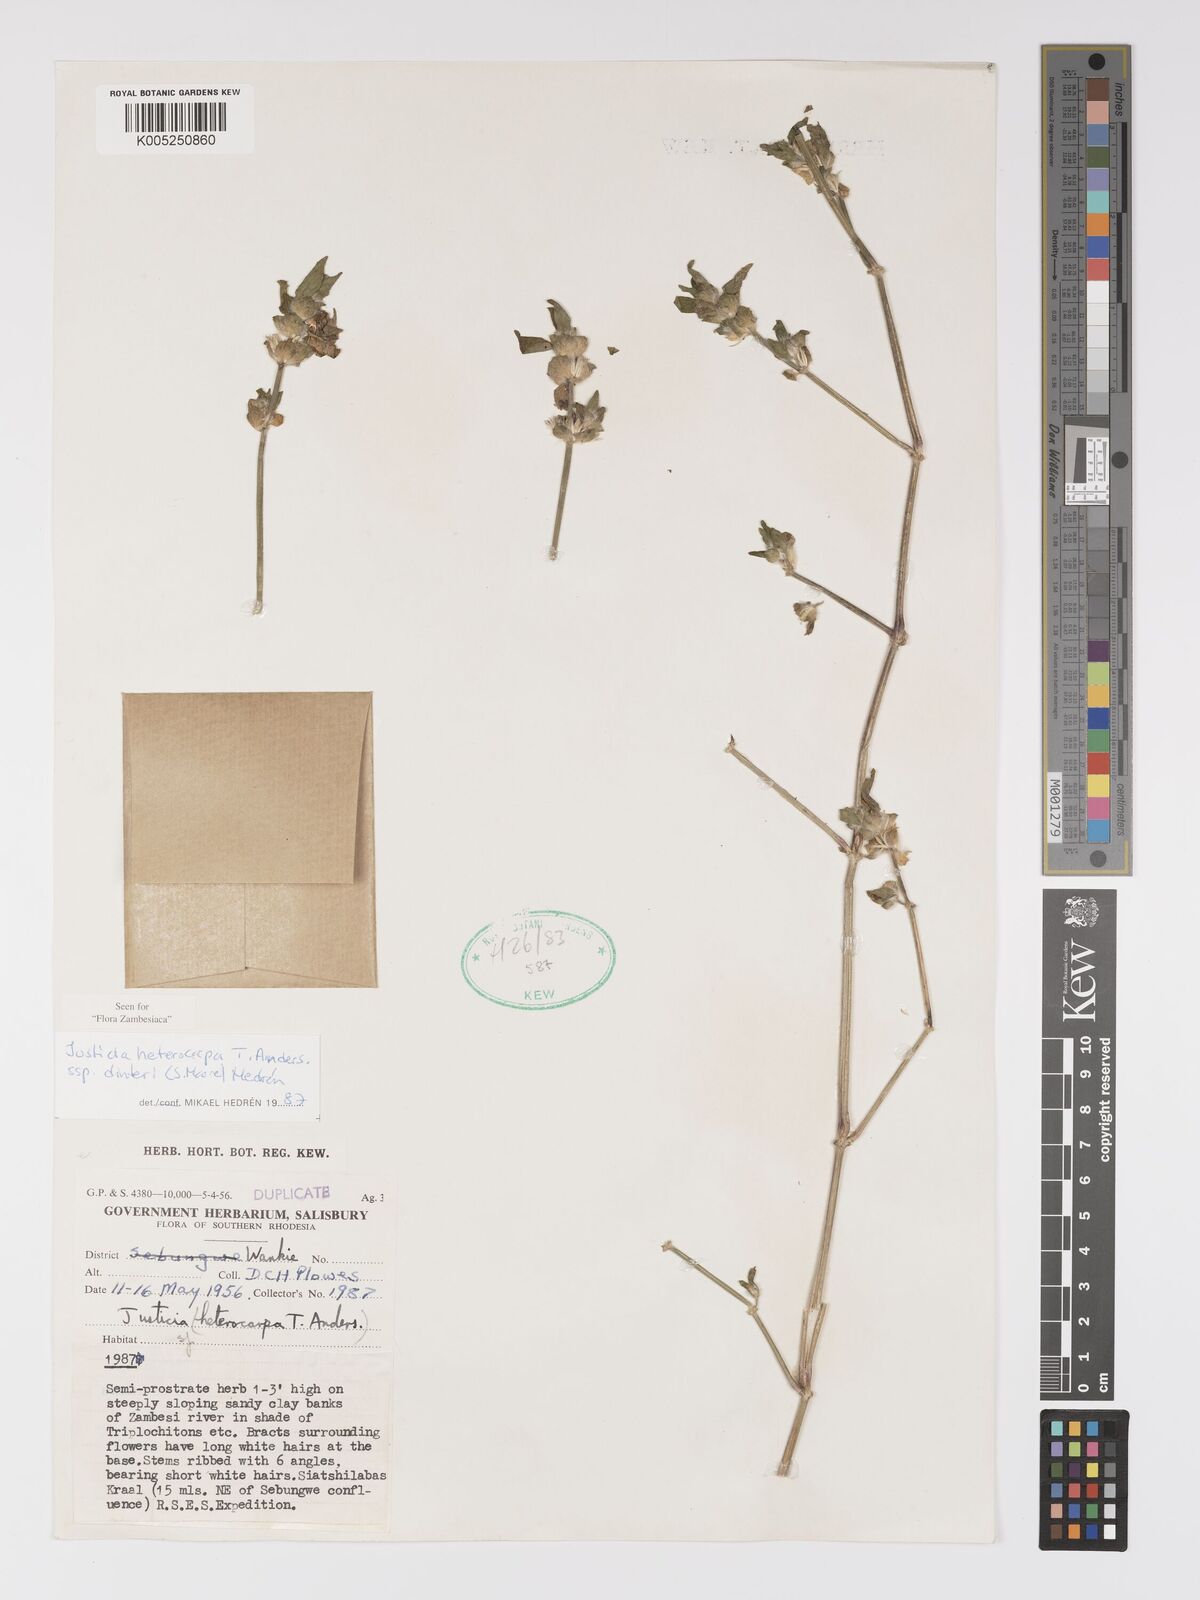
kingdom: Plantae
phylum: Tracheophyta
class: Magnoliopsida
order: Lamiales
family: Acanthaceae
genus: Justicia
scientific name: Justicia heterocarpa
